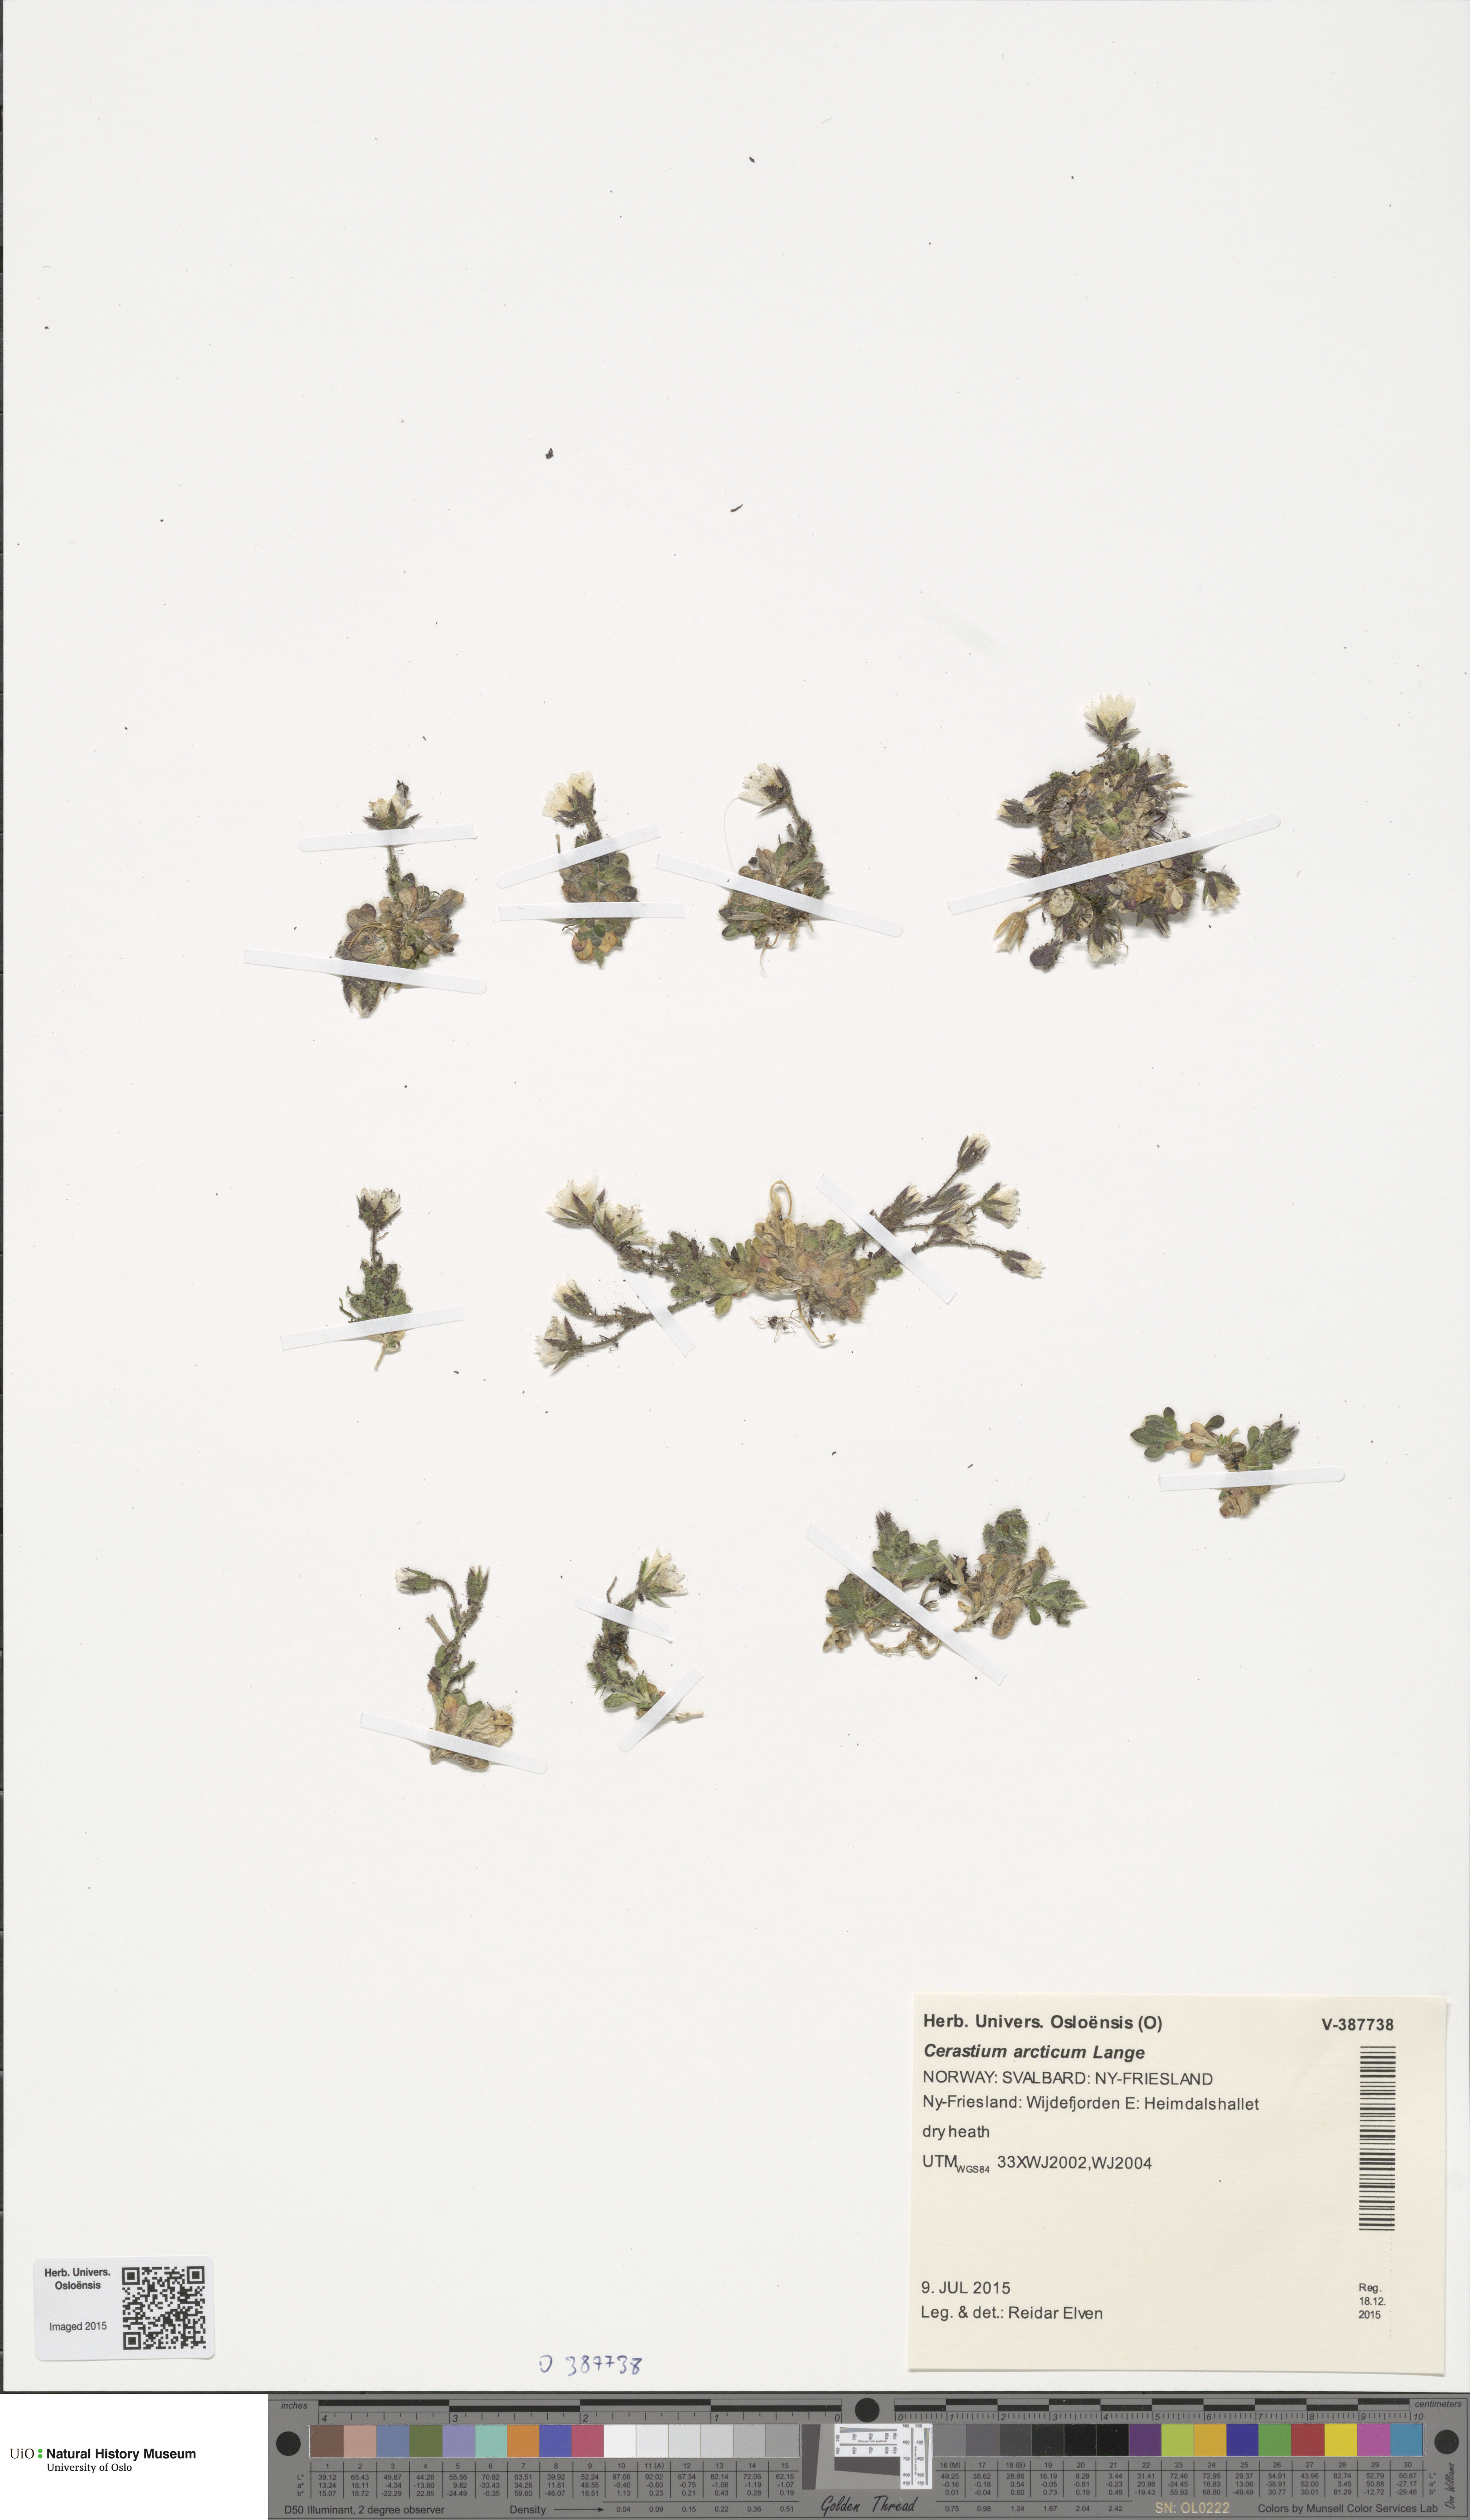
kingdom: Plantae
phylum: Tracheophyta
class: Magnoliopsida
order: Caryophyllales
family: Caryophyllaceae
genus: Cerastium
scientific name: Cerastium arcticum
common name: Arctic mouse-ear
